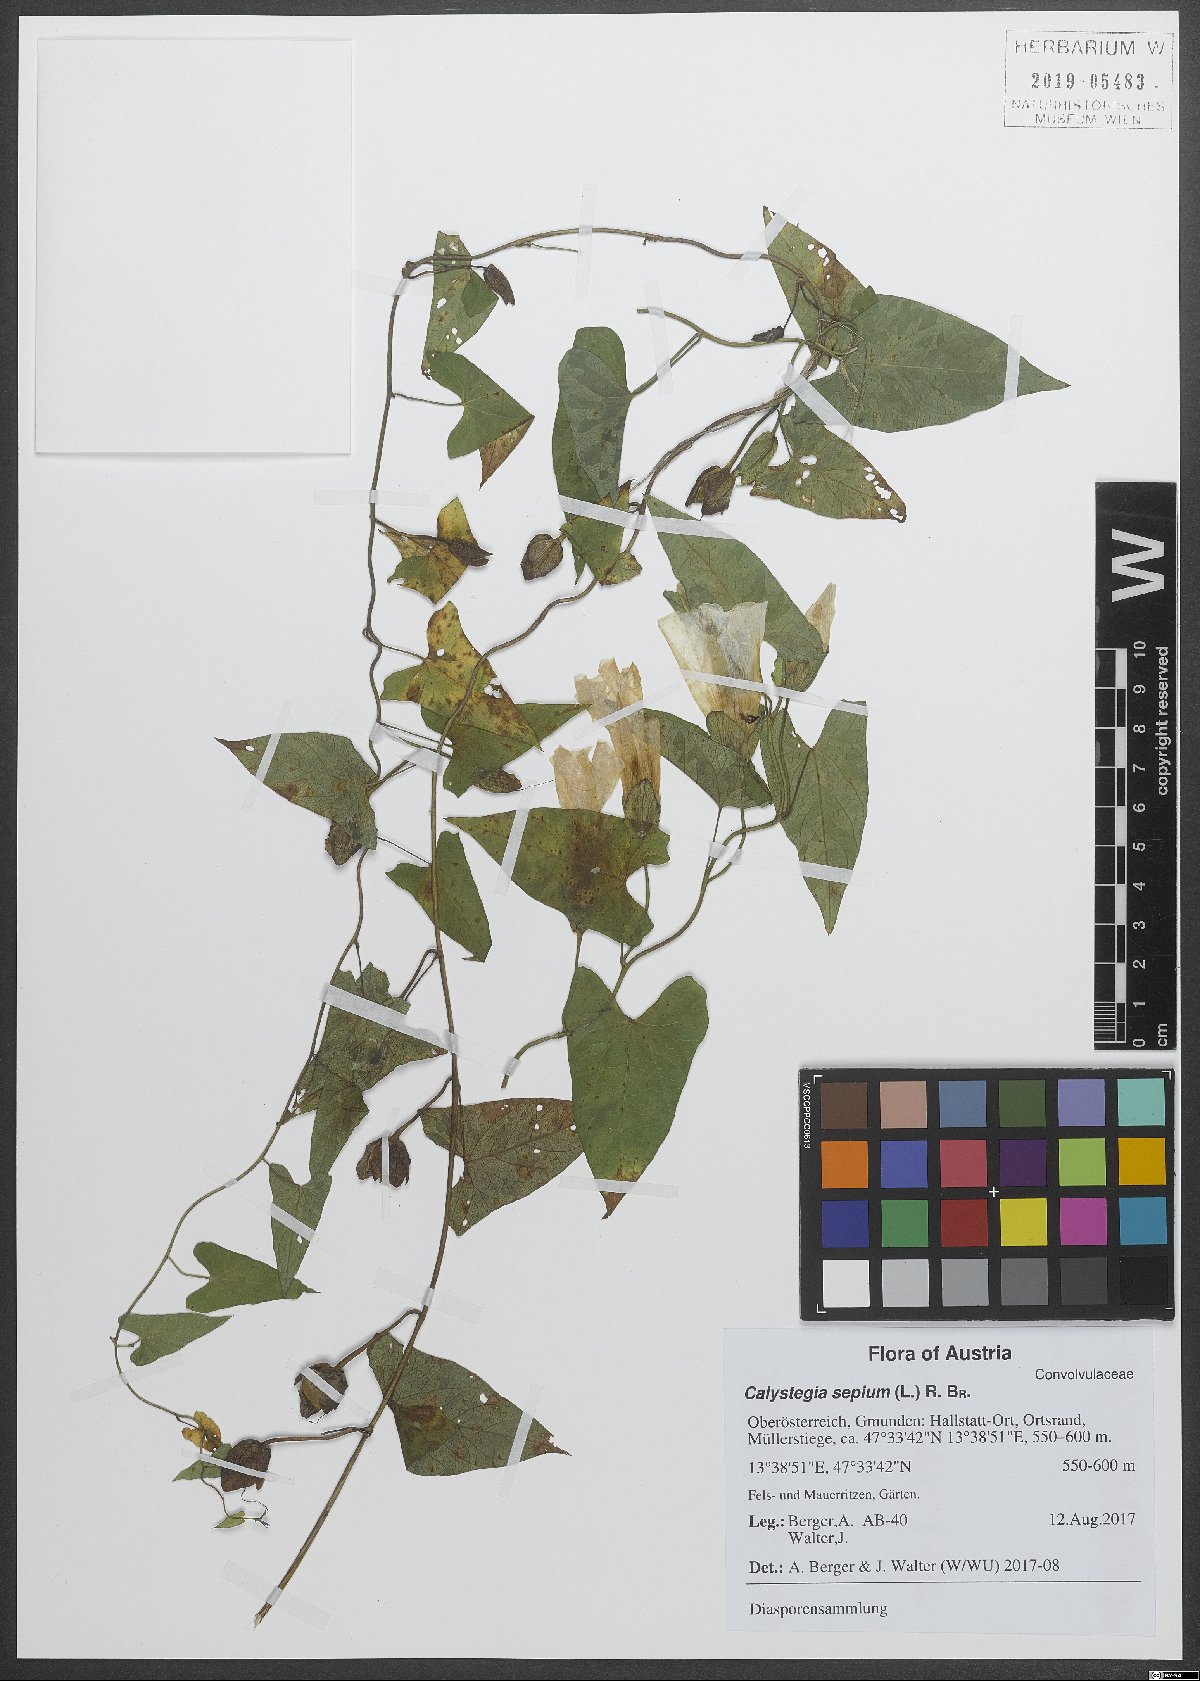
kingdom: Plantae
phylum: Tracheophyta
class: Magnoliopsida
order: Solanales
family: Convolvulaceae
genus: Calystegia
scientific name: Calystegia sepium
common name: Hedge bindweed
